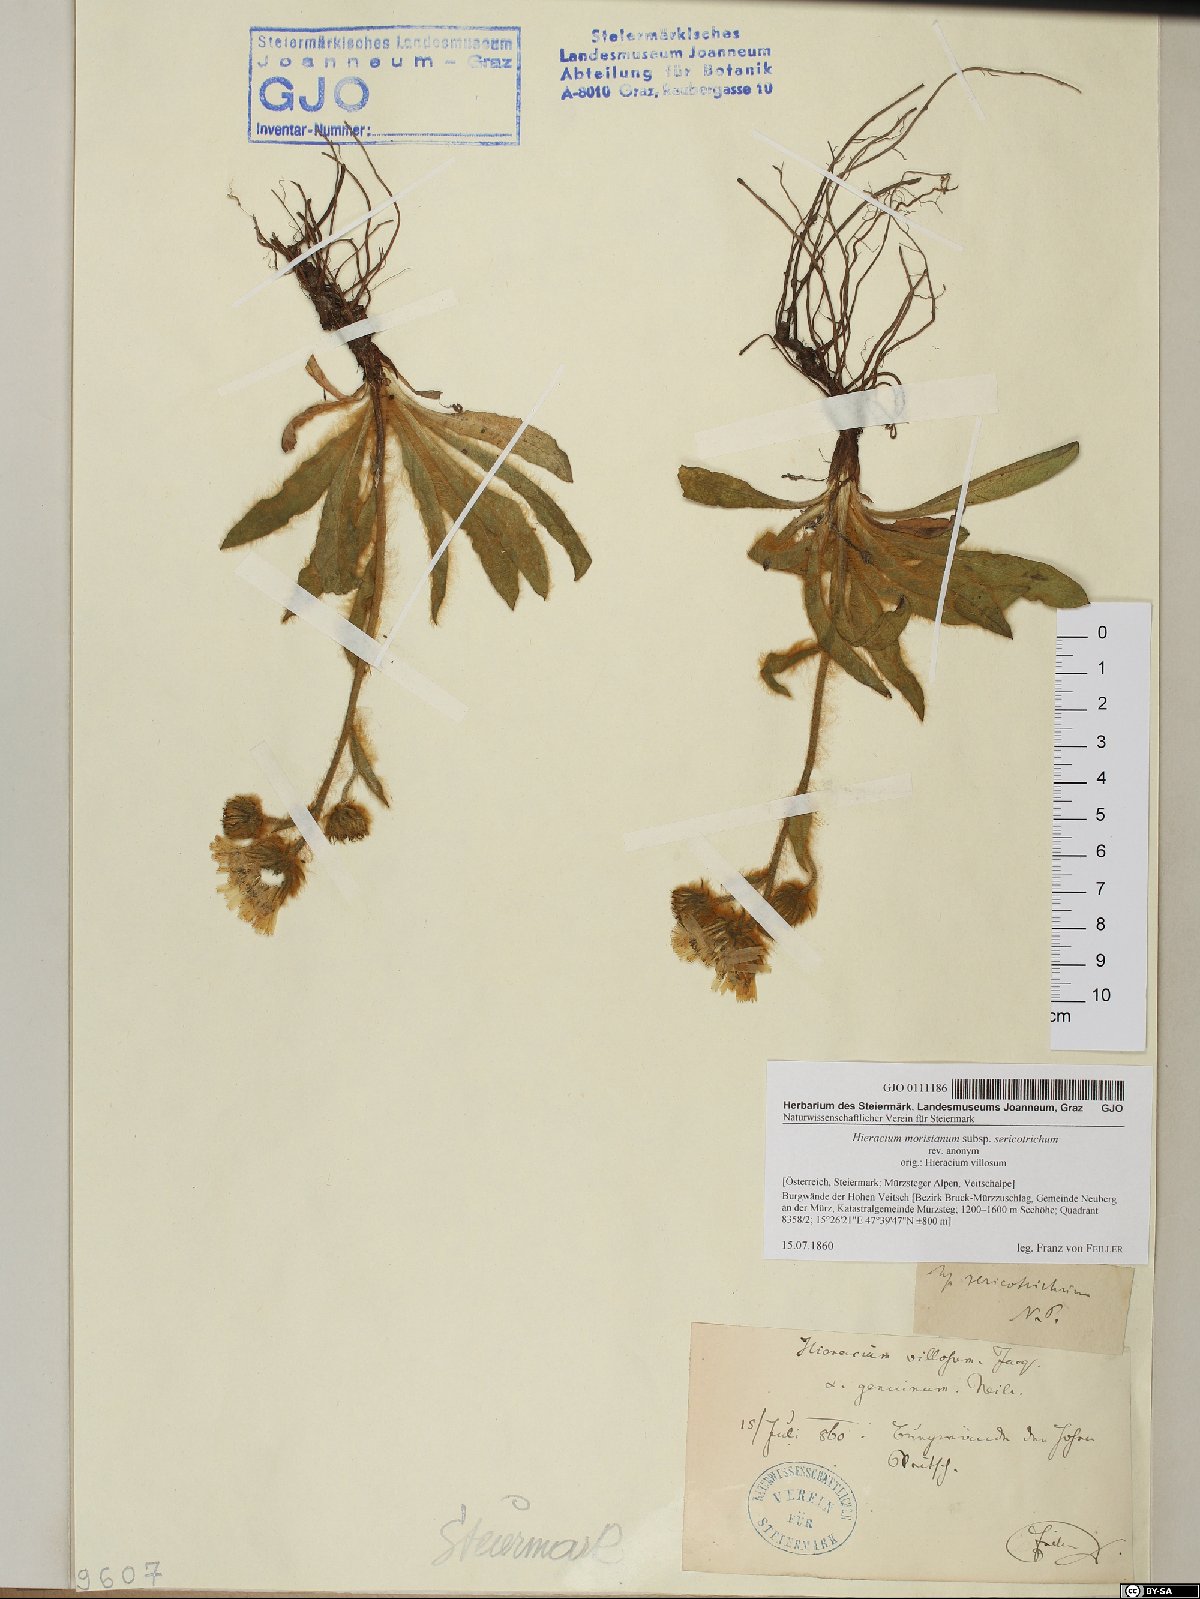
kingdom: Plantae
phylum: Tracheophyta
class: Magnoliopsida
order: Asterales
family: Asteraceae
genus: Hieracium
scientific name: Hieracium pilosum
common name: Fimbriate-pitted hawkweed
